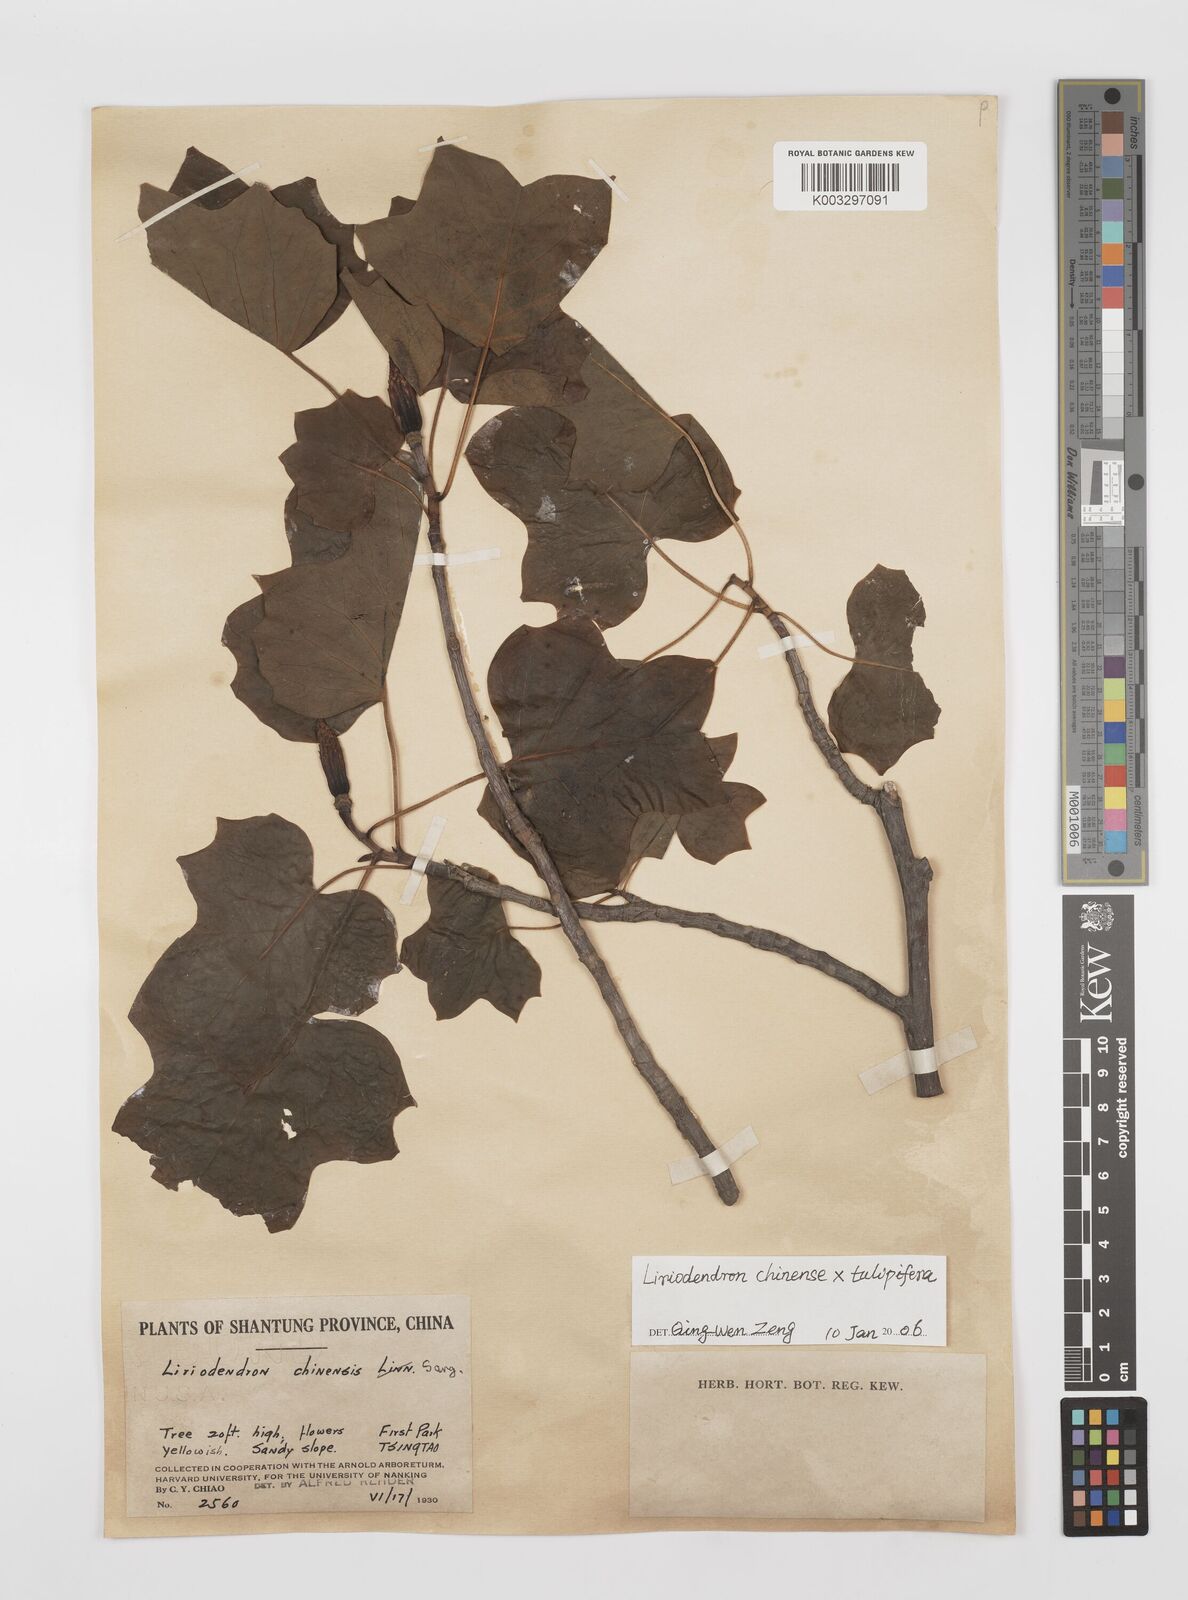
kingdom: Plantae
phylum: Tracheophyta
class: Magnoliopsida
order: Magnoliales
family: Magnoliaceae
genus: Liriodendron
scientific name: Liriodendron chinense
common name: Chinese tuliptree
